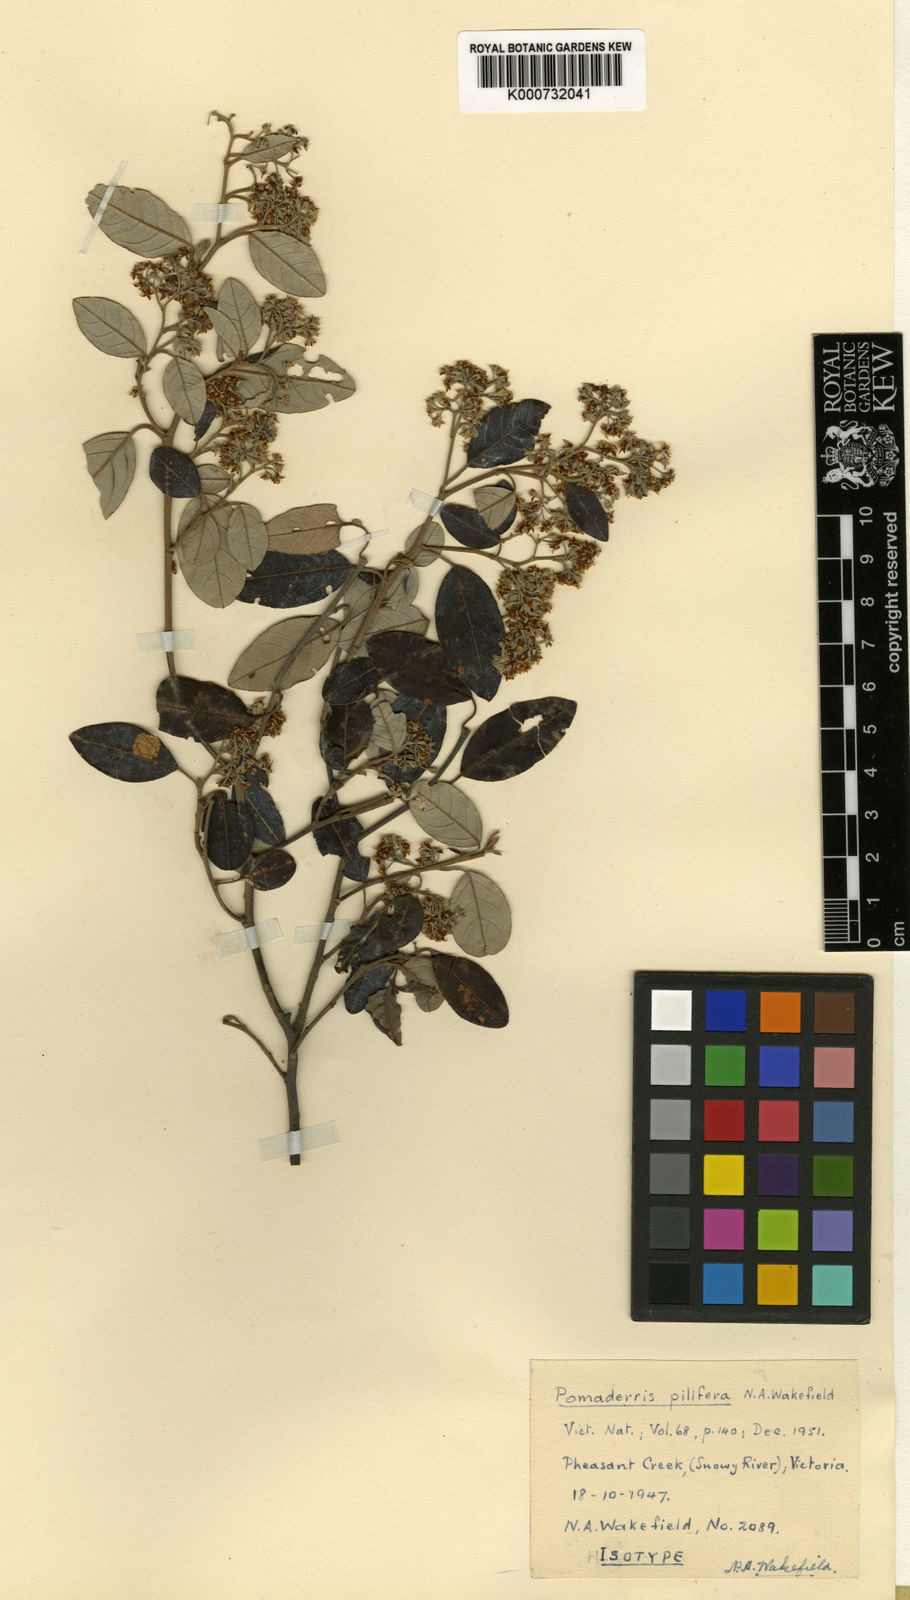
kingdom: Plantae
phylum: Tracheophyta
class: Magnoliopsida
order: Rosales
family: Rhamnaceae
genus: Pomaderris
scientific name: Pomaderris
